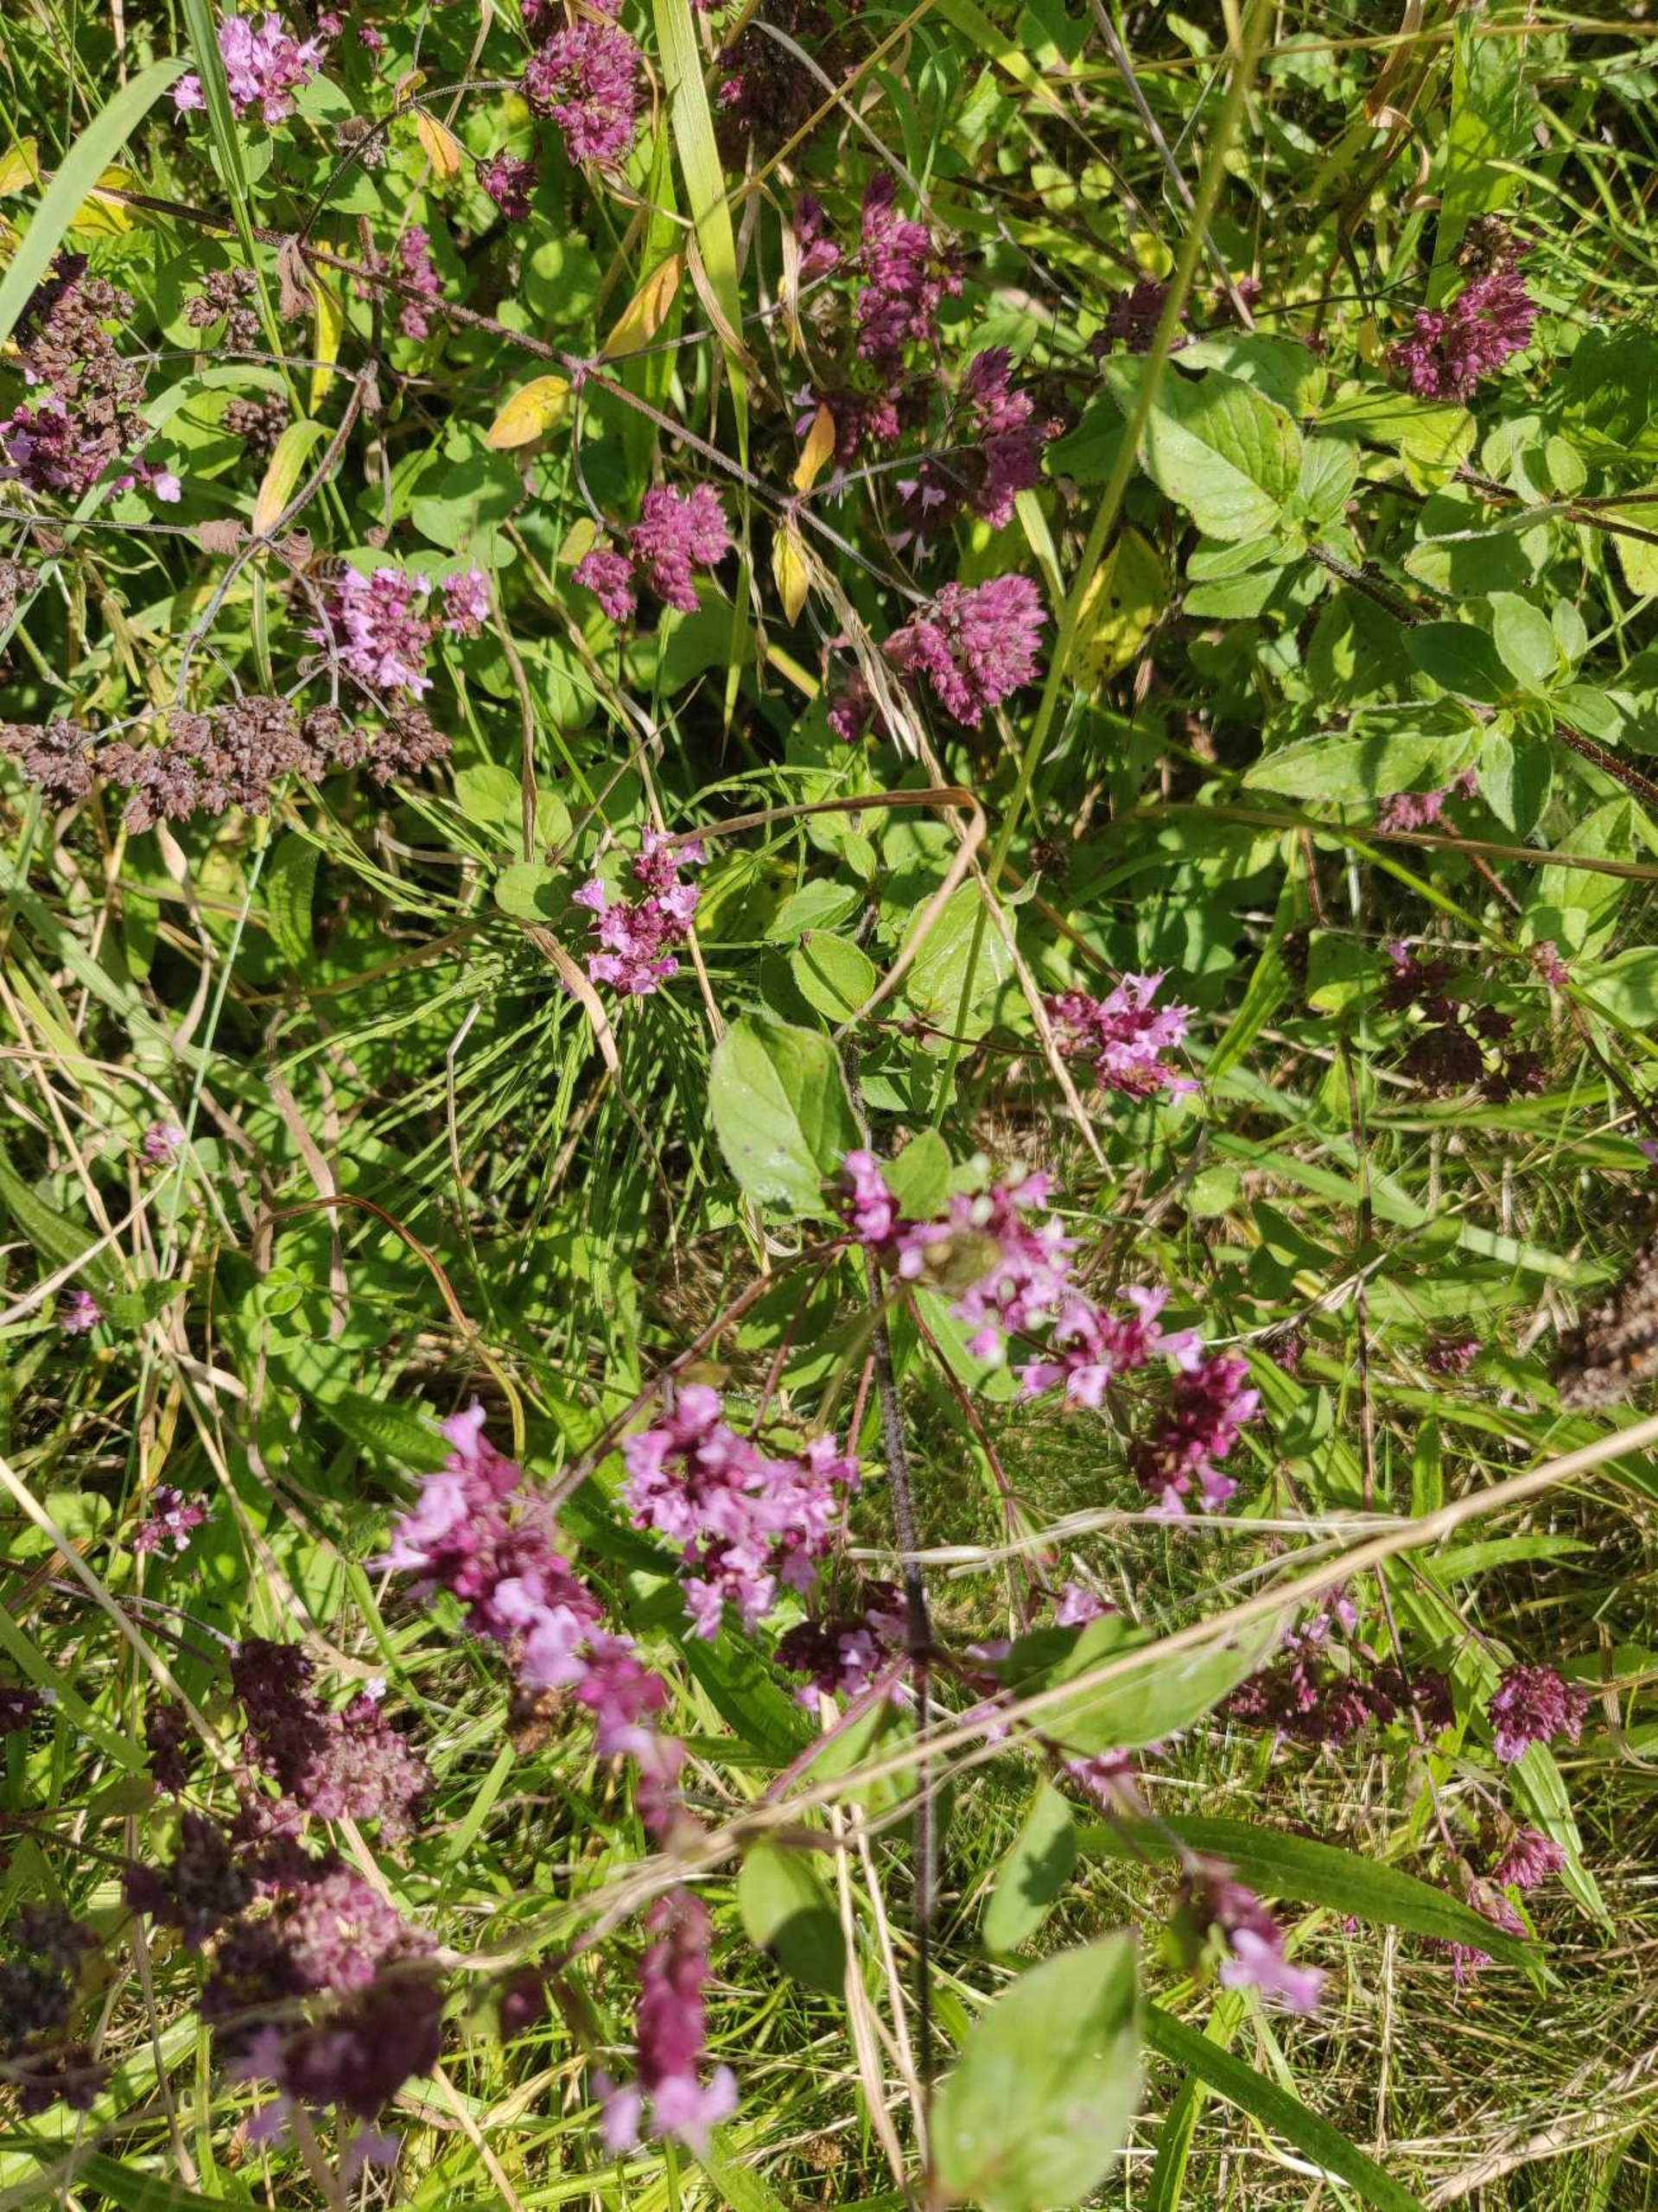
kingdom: Plantae
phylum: Tracheophyta
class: Magnoliopsida
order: Lamiales
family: Lamiaceae
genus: Origanum
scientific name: Origanum vulgare
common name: Merian
